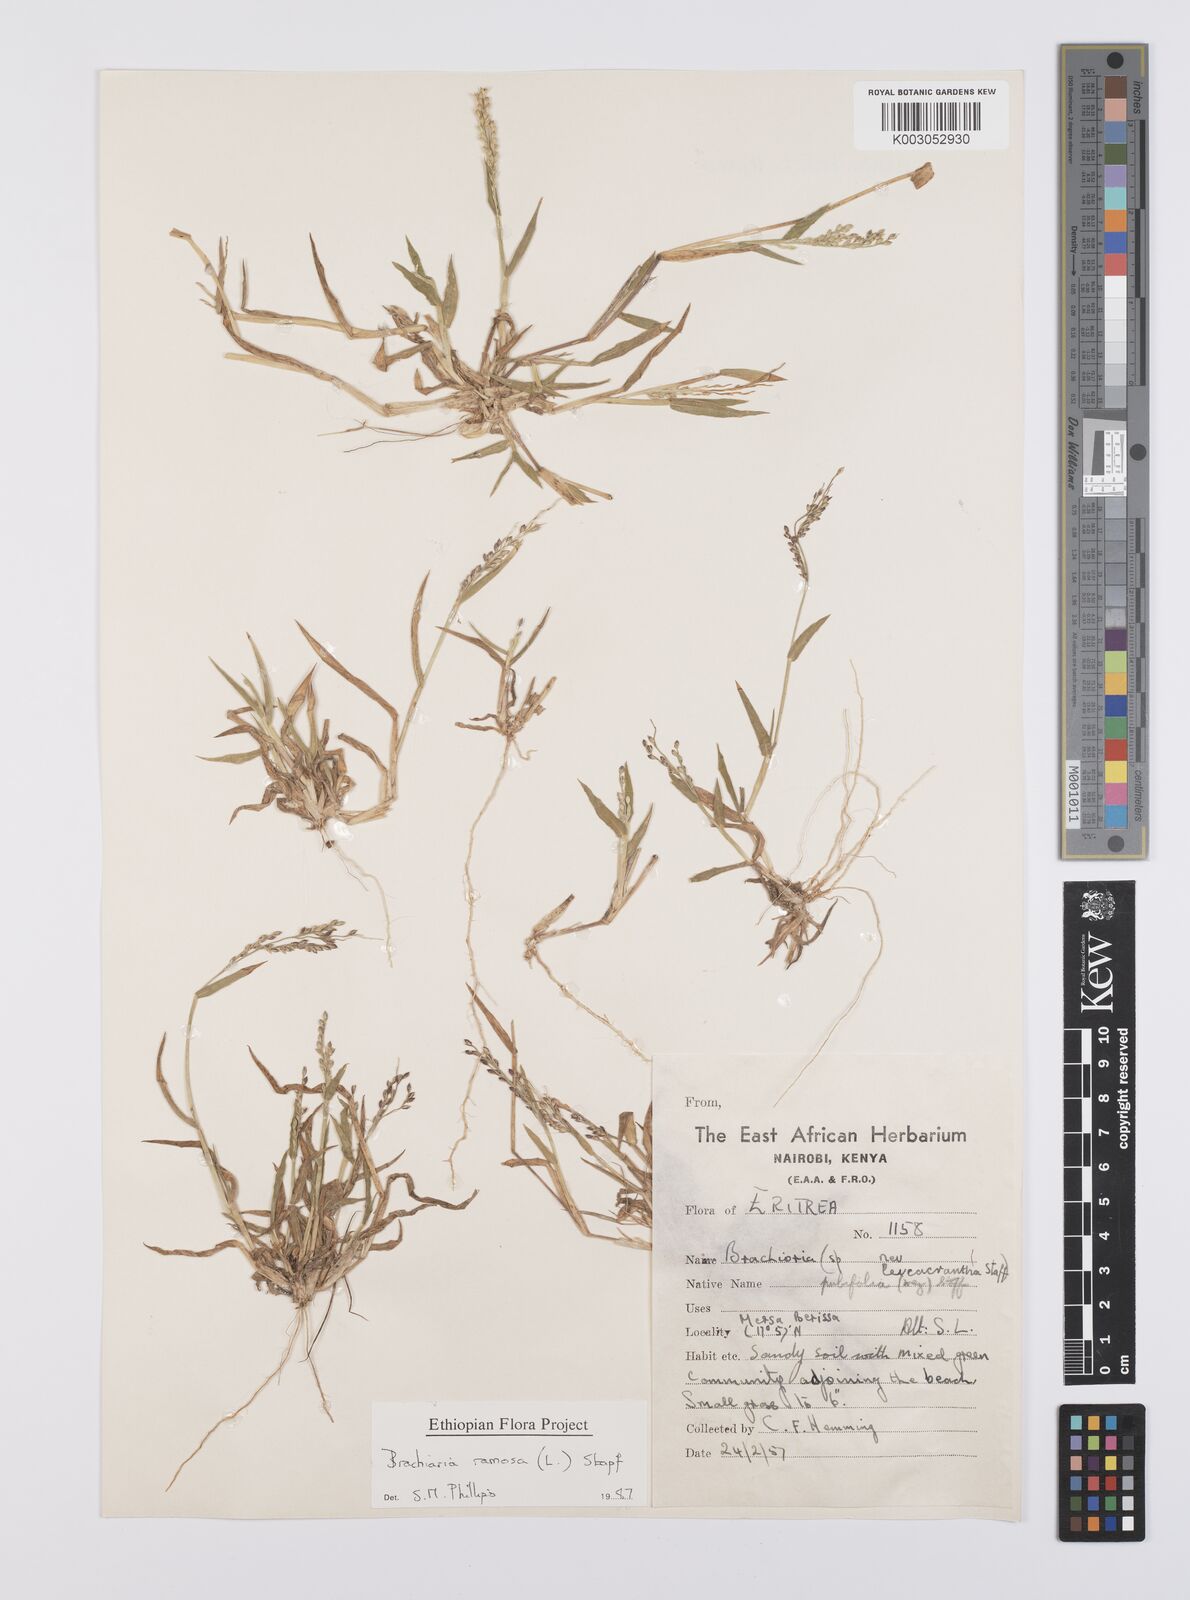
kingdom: Plantae
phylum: Tracheophyta
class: Liliopsida
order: Poales
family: Poaceae
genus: Urochloa
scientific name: Urochloa ramosa
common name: Browntop millet
